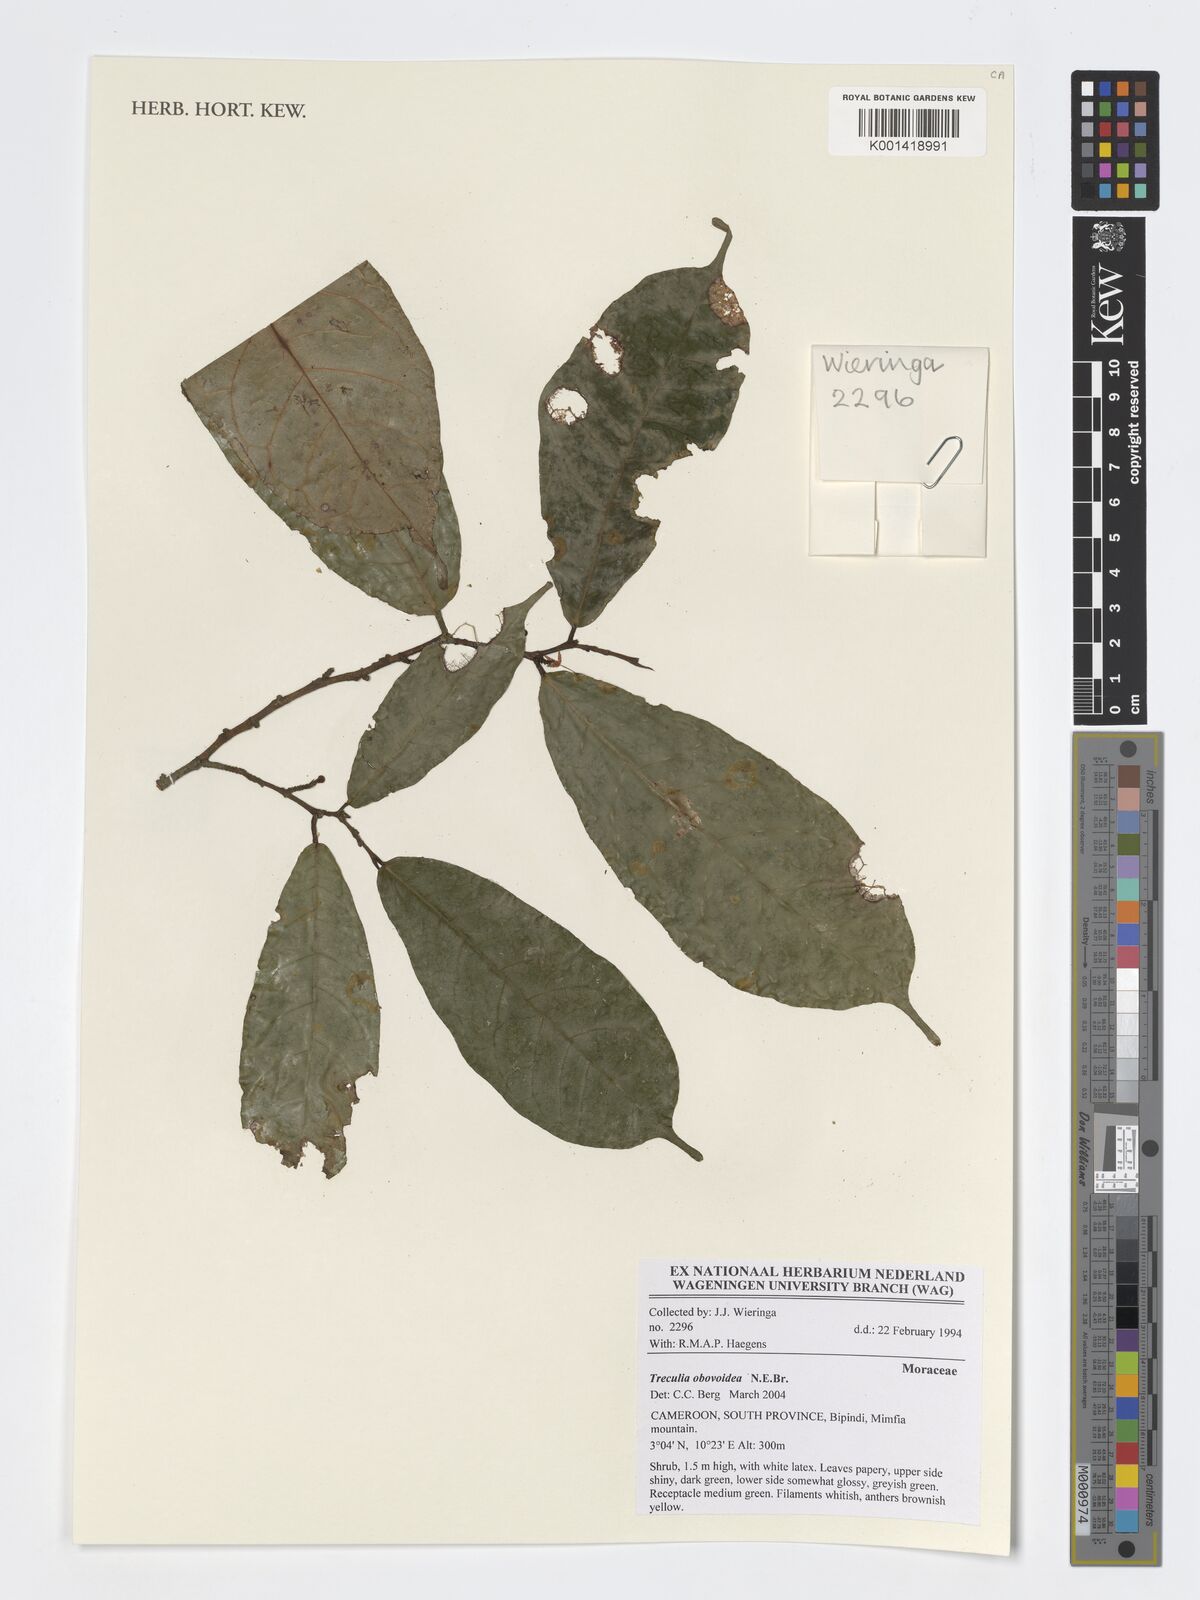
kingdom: Plantae
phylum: Tracheophyta
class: Magnoliopsida
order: Rosales
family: Moraceae
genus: Treculia
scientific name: Treculia obovoidea
